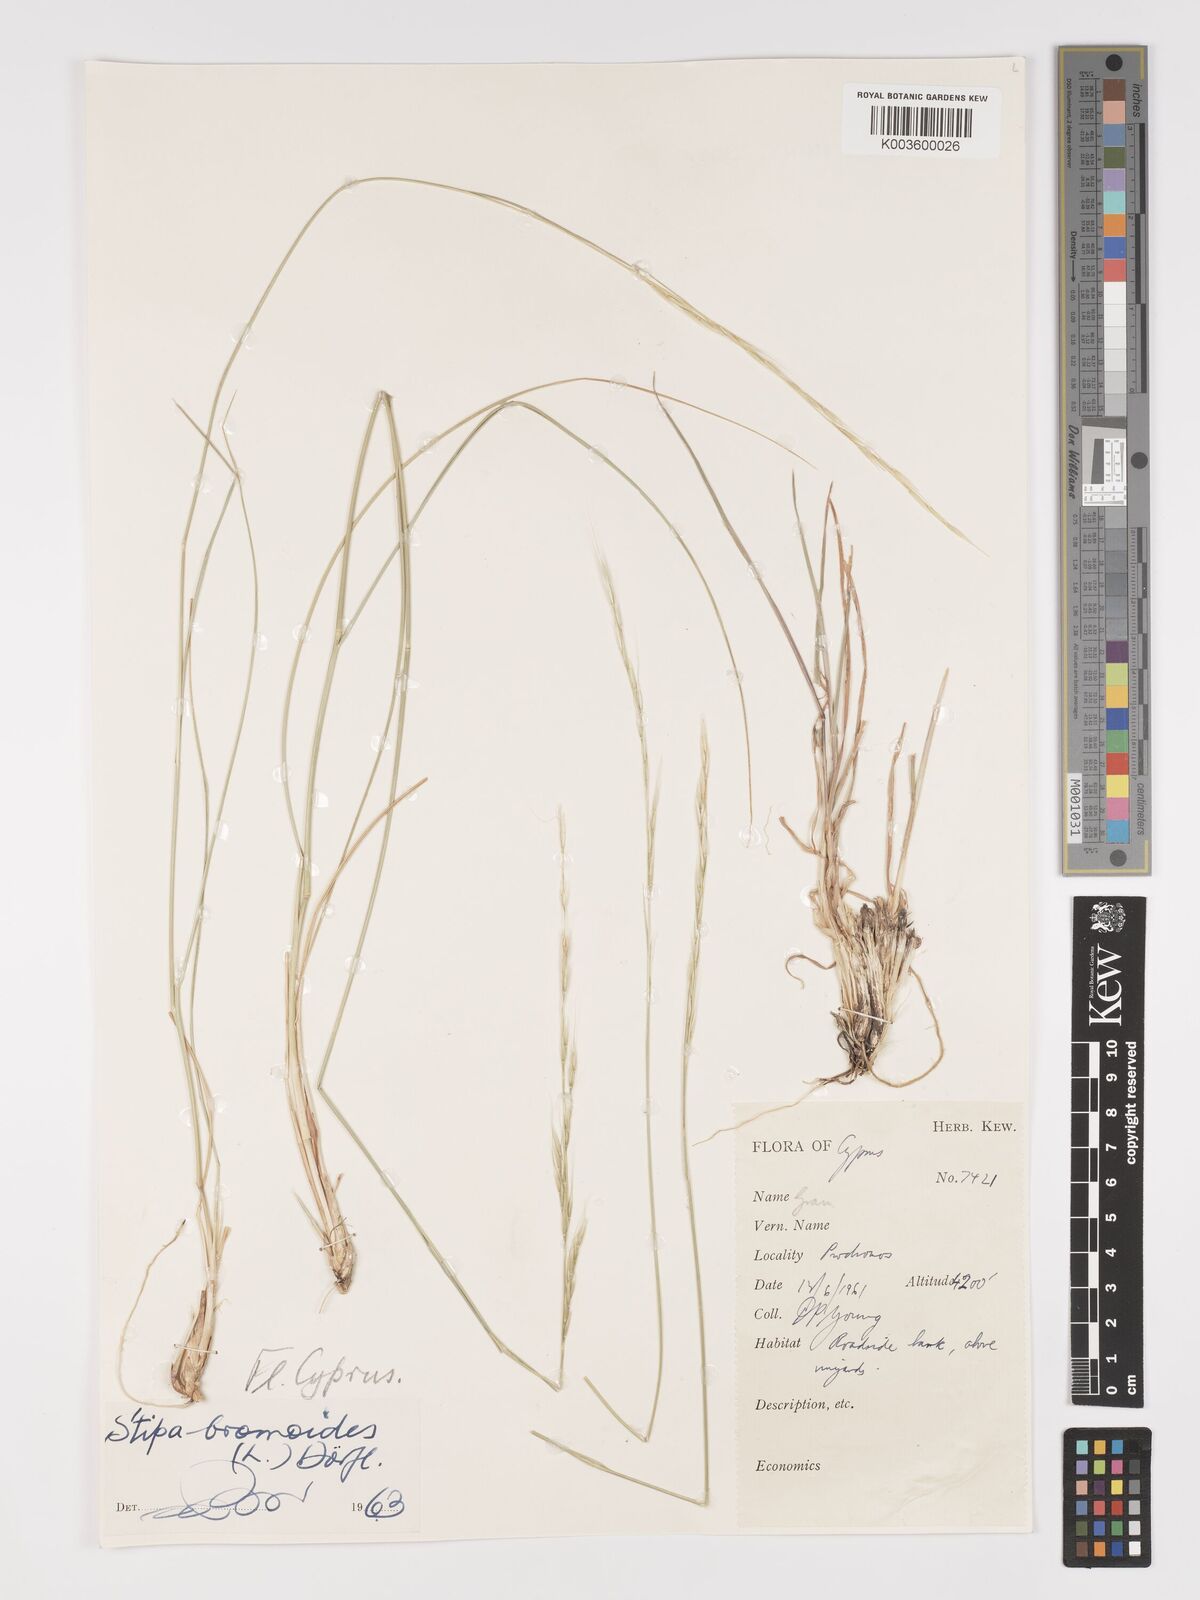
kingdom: Plantae
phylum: Tracheophyta
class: Liliopsida
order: Poales
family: Poaceae
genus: Achnatherum
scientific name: Achnatherum bromoides
